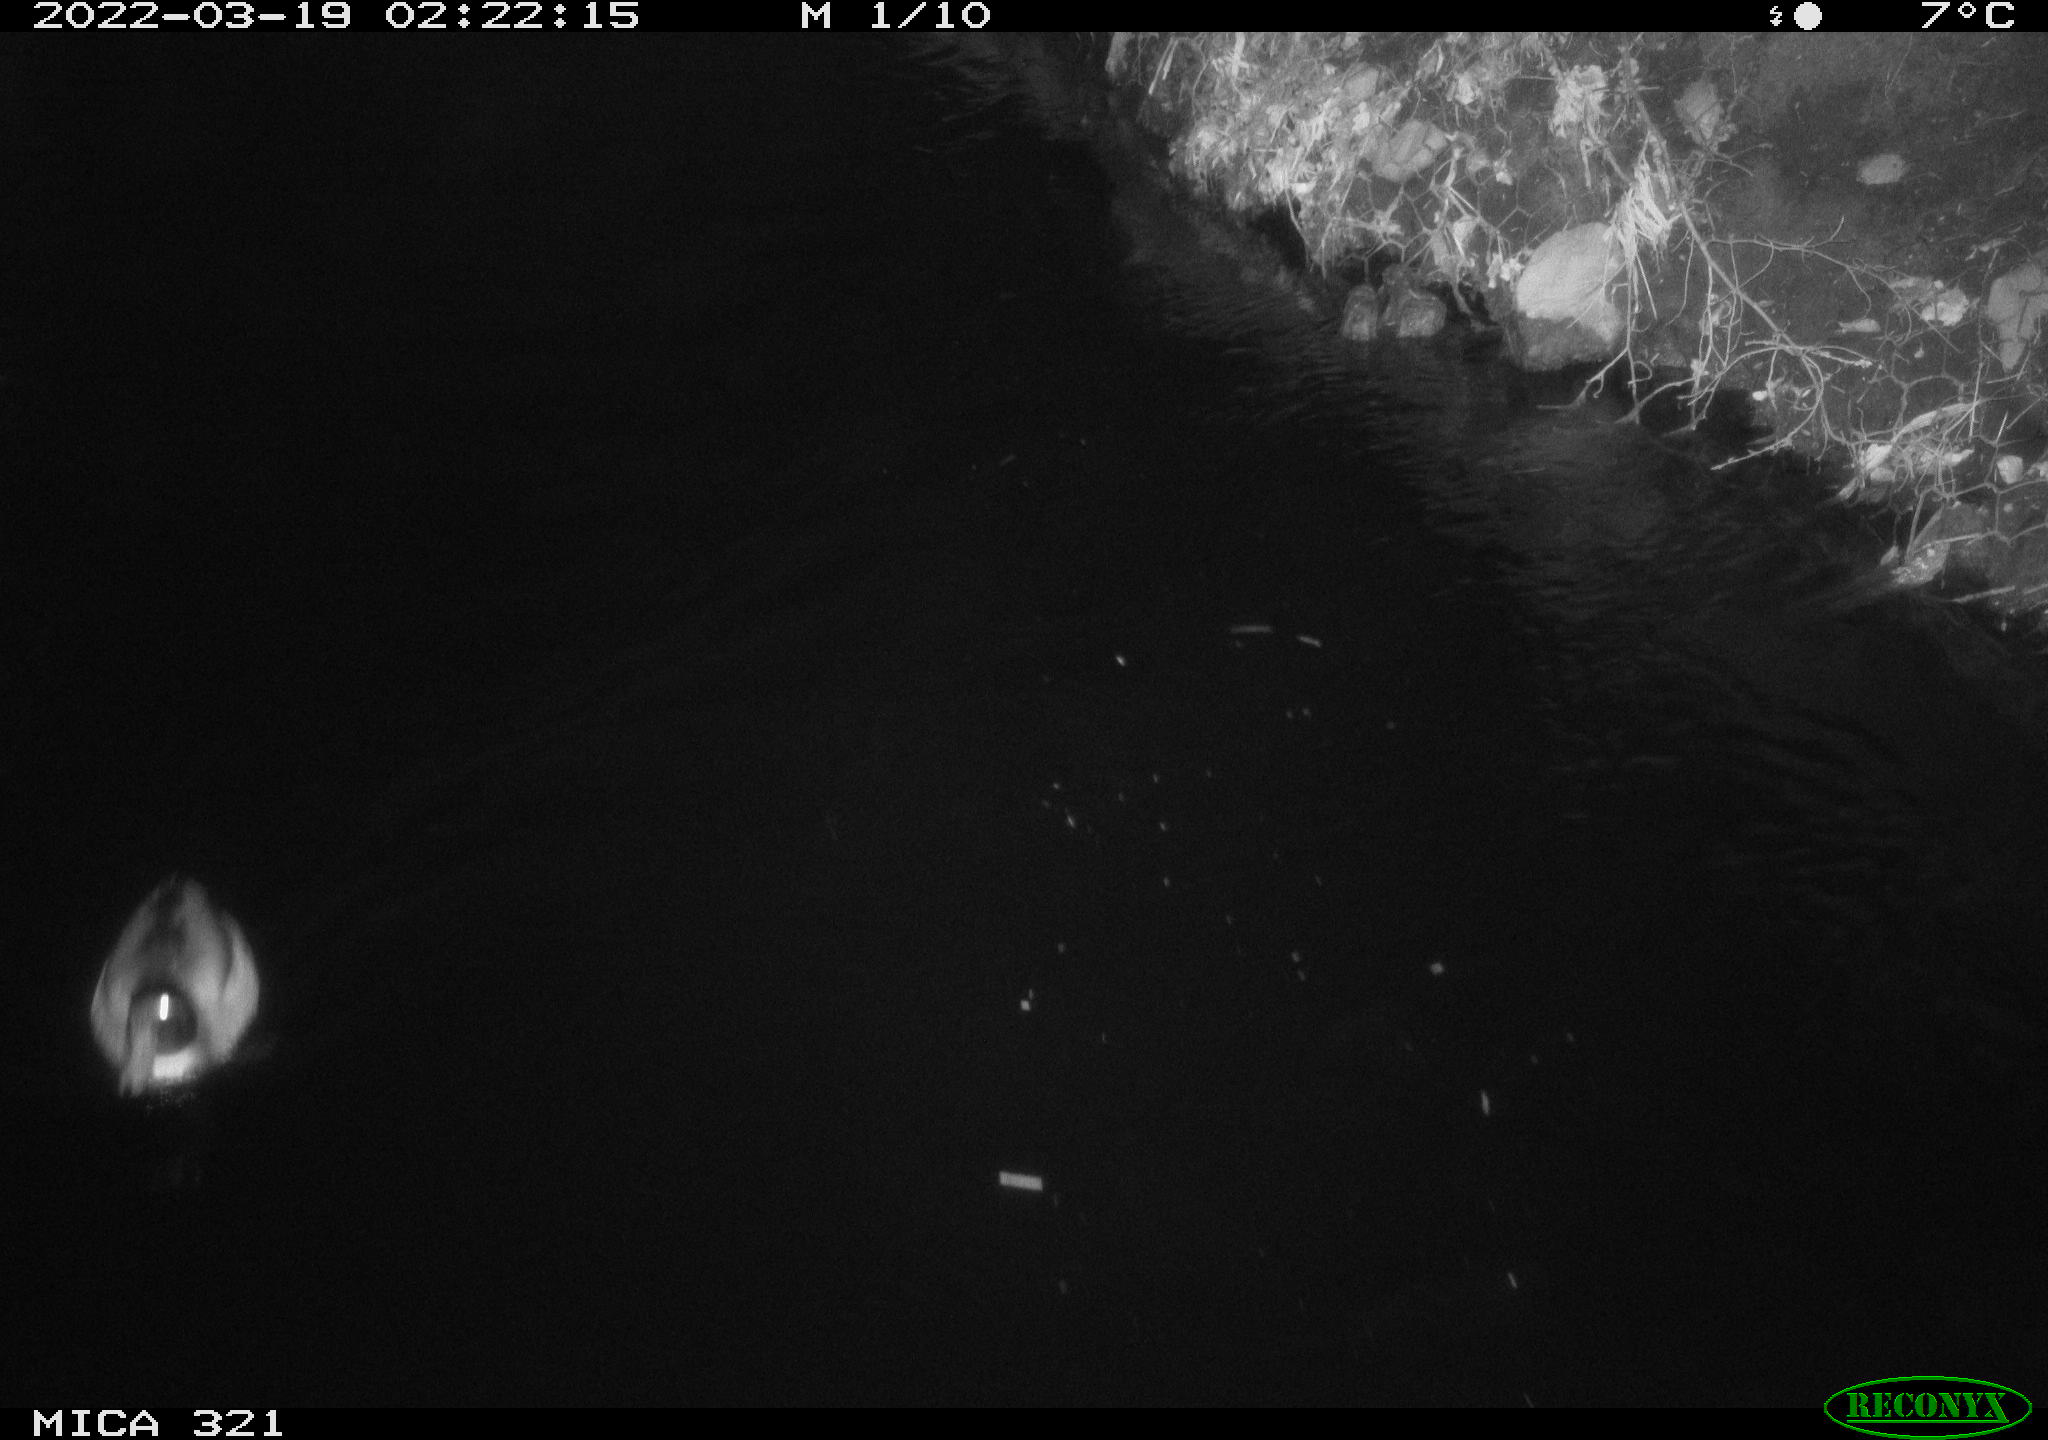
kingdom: Animalia
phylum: Chordata
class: Aves
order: Anseriformes
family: Anatidae
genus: Anas
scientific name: Anas platyrhynchos
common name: Mallard
